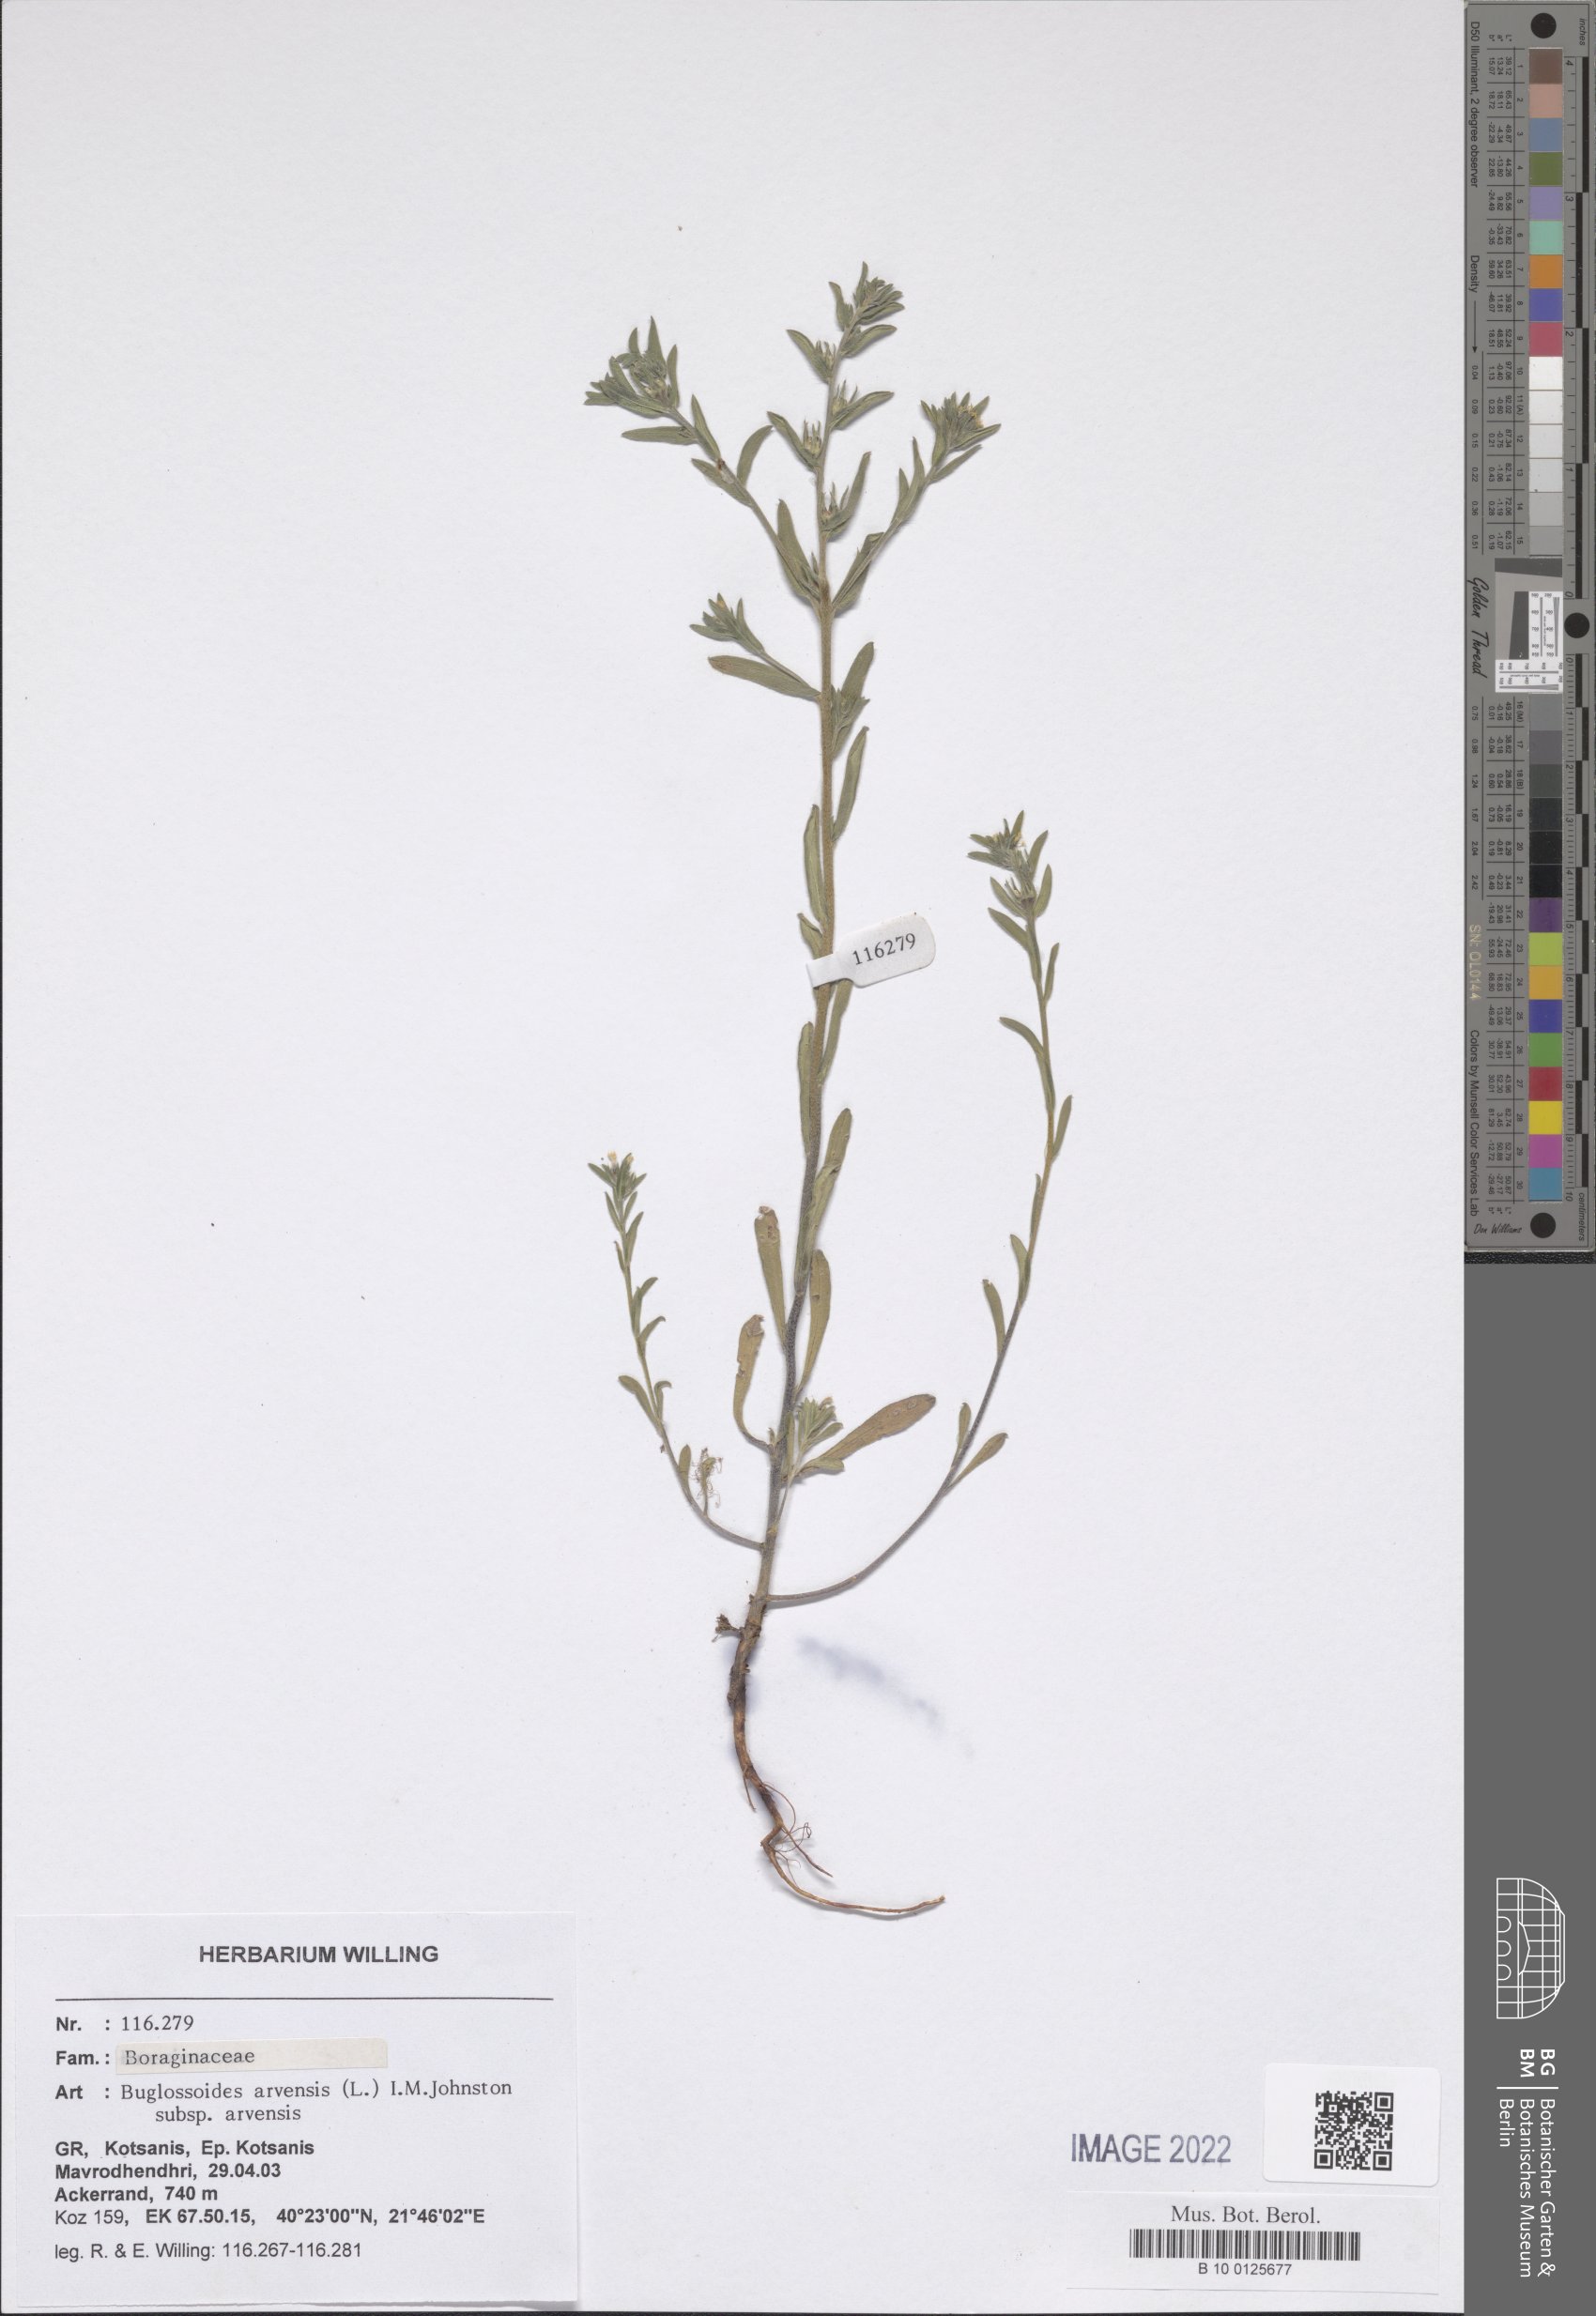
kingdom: Plantae
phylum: Tracheophyta
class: Magnoliopsida
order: Boraginales
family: Boraginaceae
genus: Buglossoides
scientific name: Buglossoides arvensis
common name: Corn gromwell
